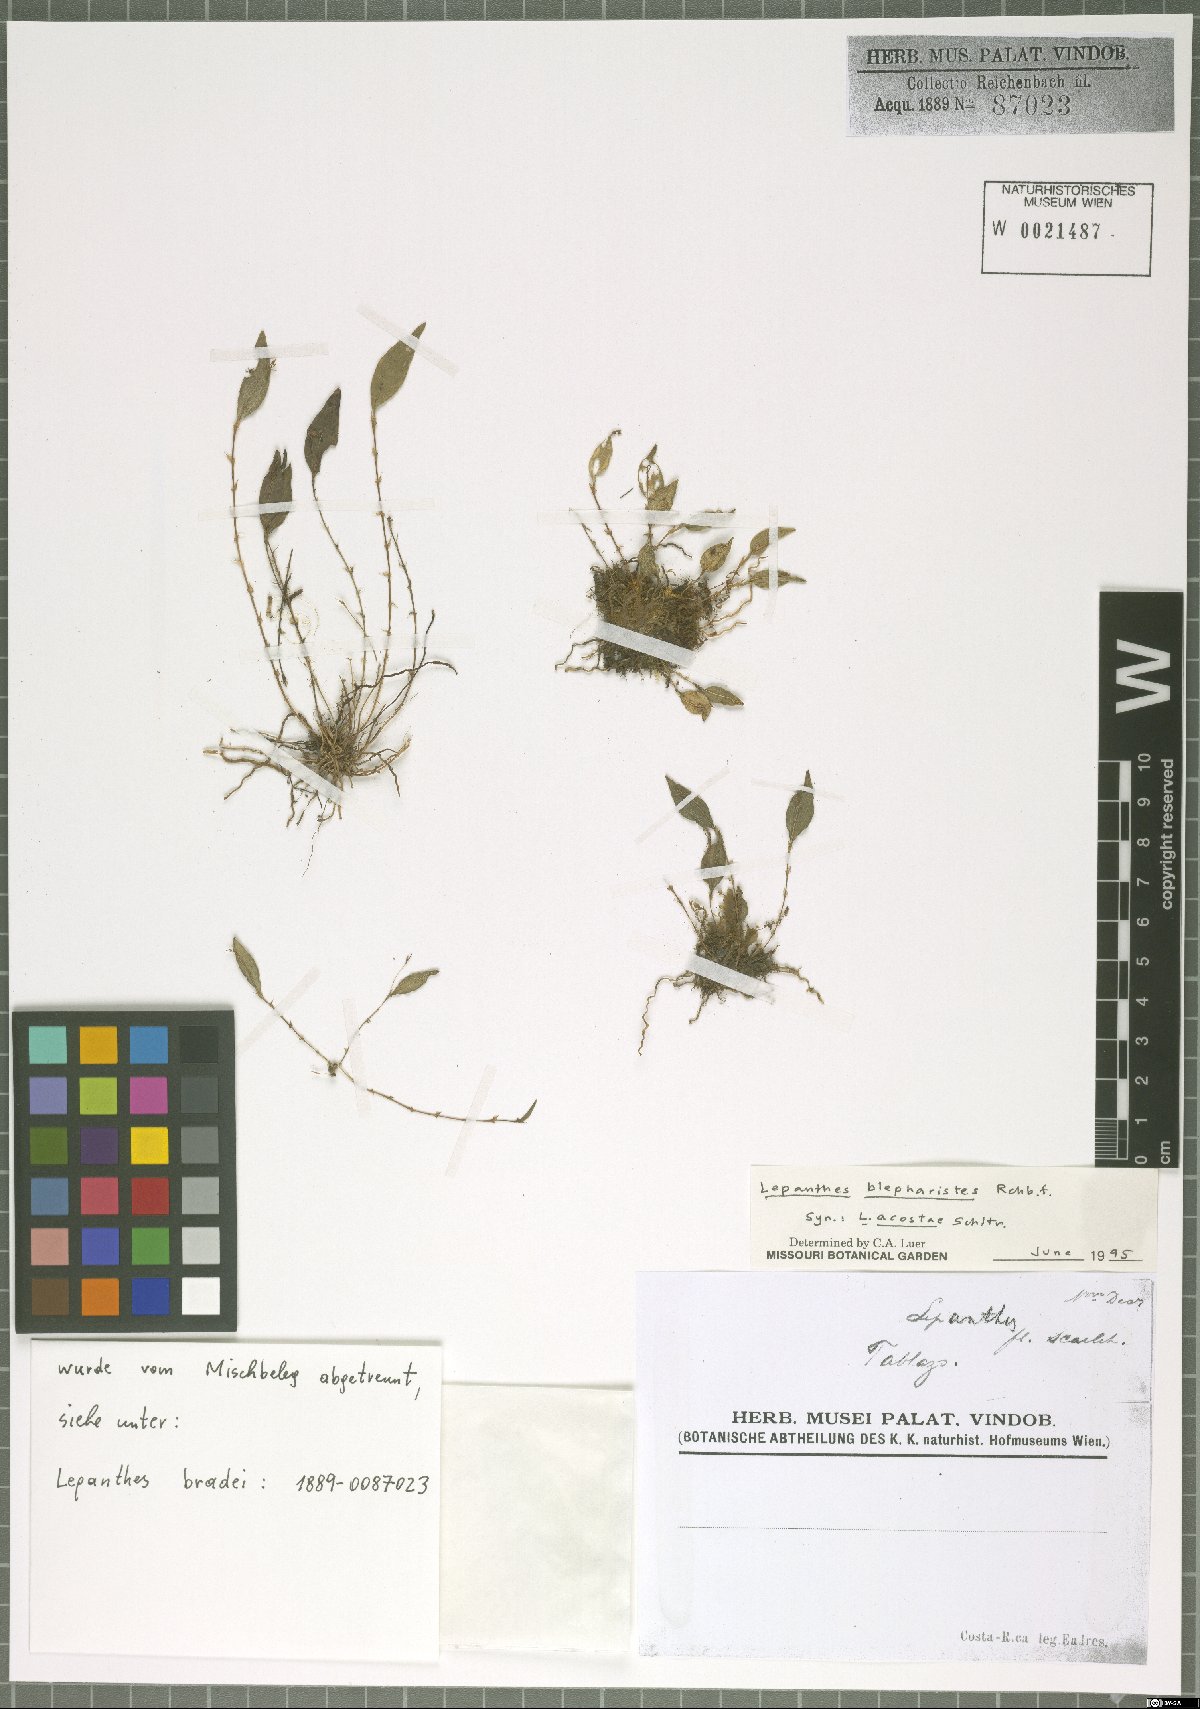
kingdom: Plantae
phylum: Tracheophyta
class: Liliopsida
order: Asparagales
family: Orchidaceae
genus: Lepanthes
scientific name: Lepanthes blepharistes
